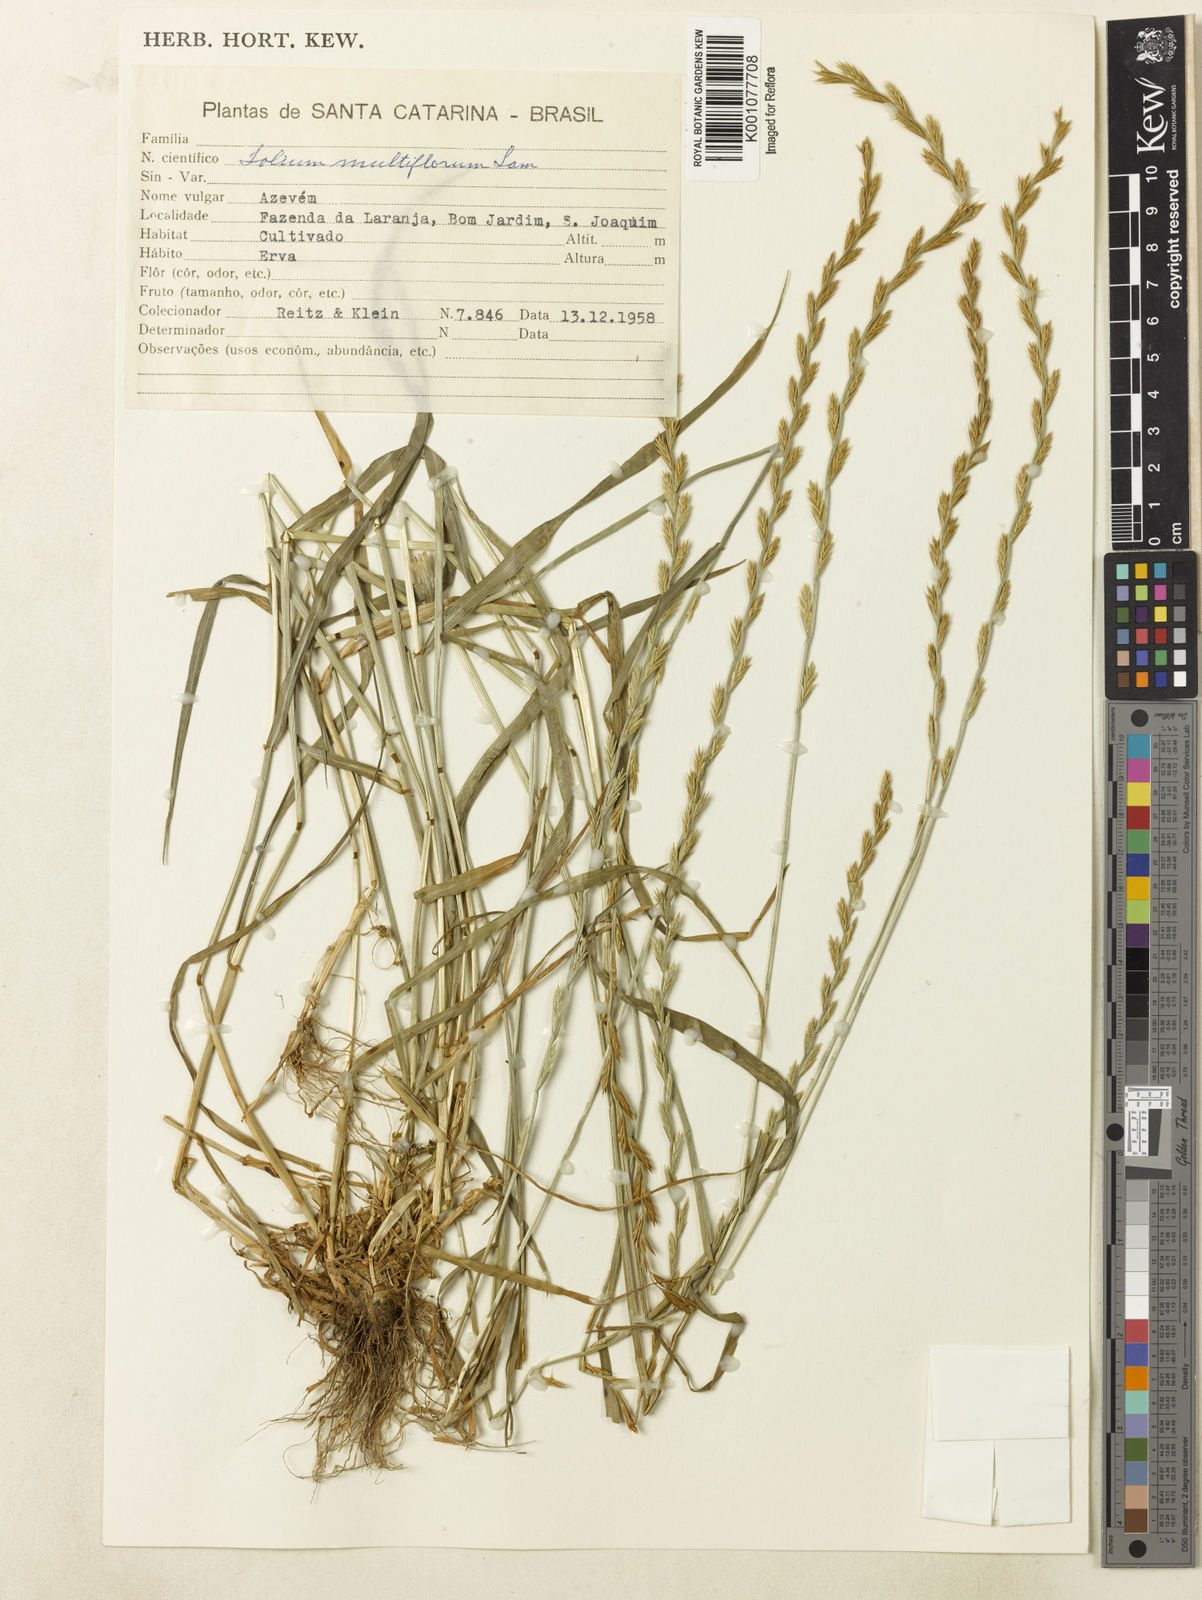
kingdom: Plantae
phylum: Tracheophyta
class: Liliopsida
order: Poales
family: Poaceae
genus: Lolium
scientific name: Lolium multiflorum
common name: Annual ryegrass
